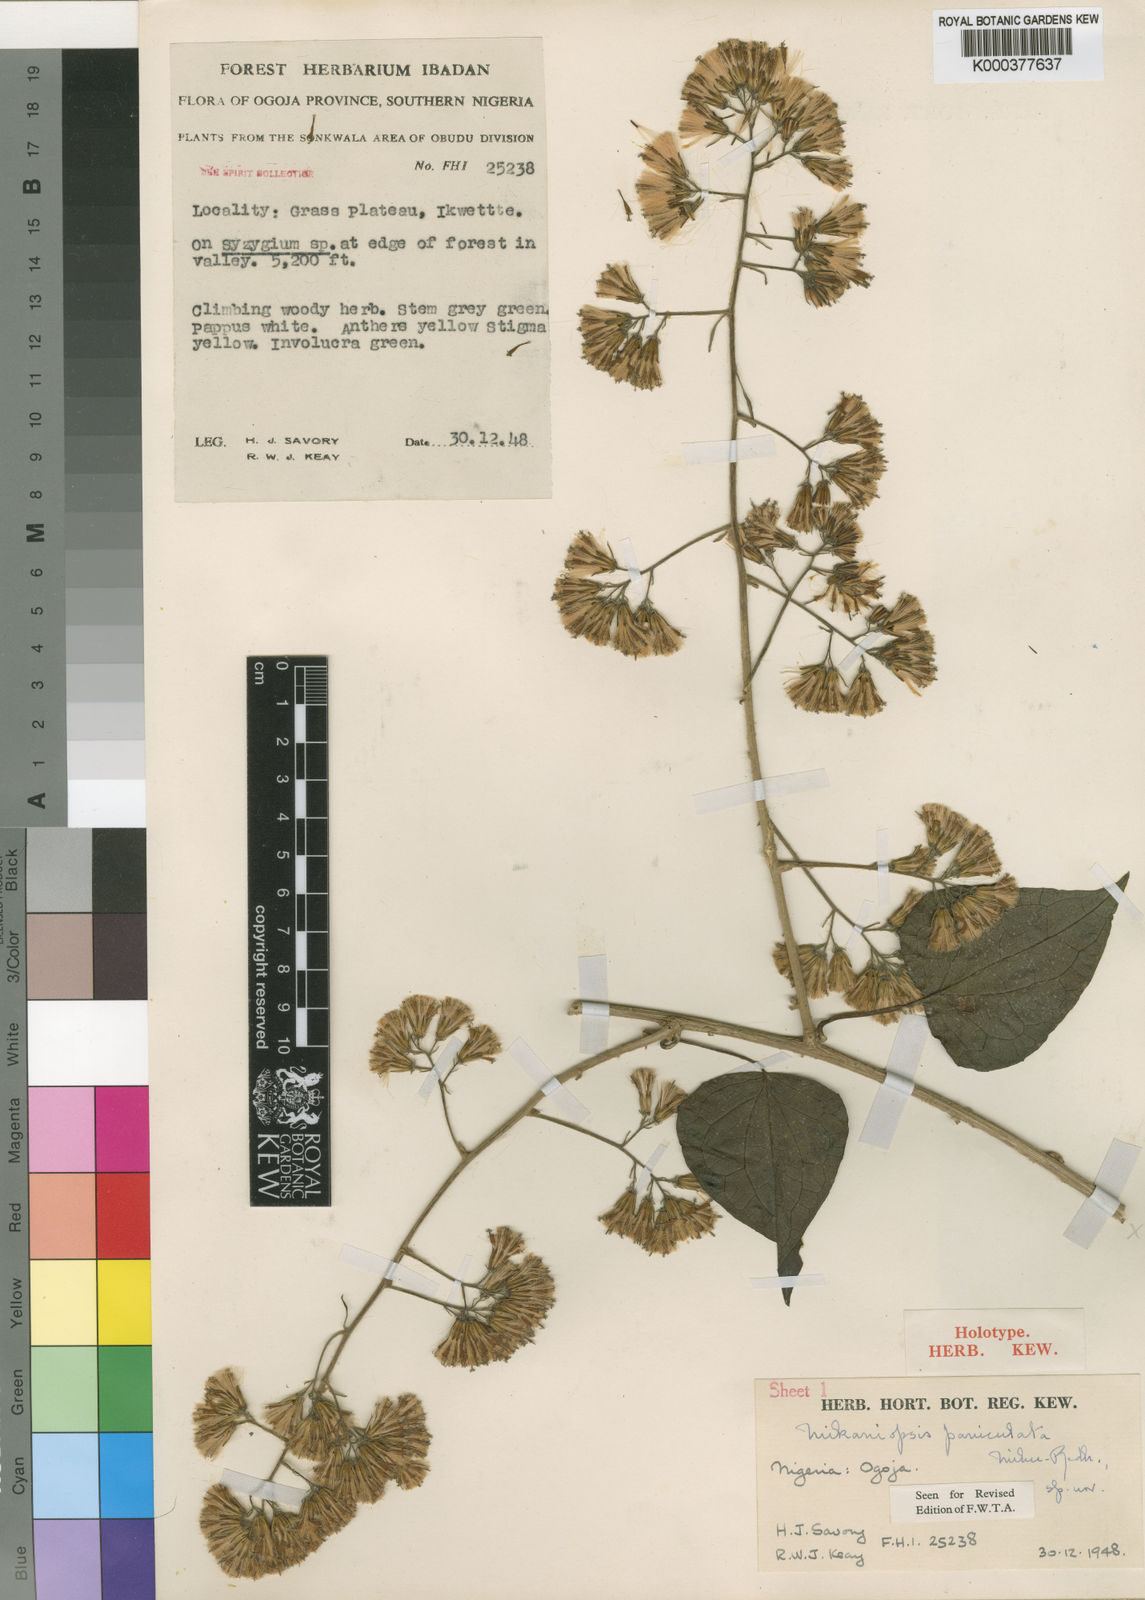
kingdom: Plantae
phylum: Tracheophyta
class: Magnoliopsida
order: Asterales
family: Asteraceae
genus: Mikaniopsis
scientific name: Mikaniopsis paniculata
